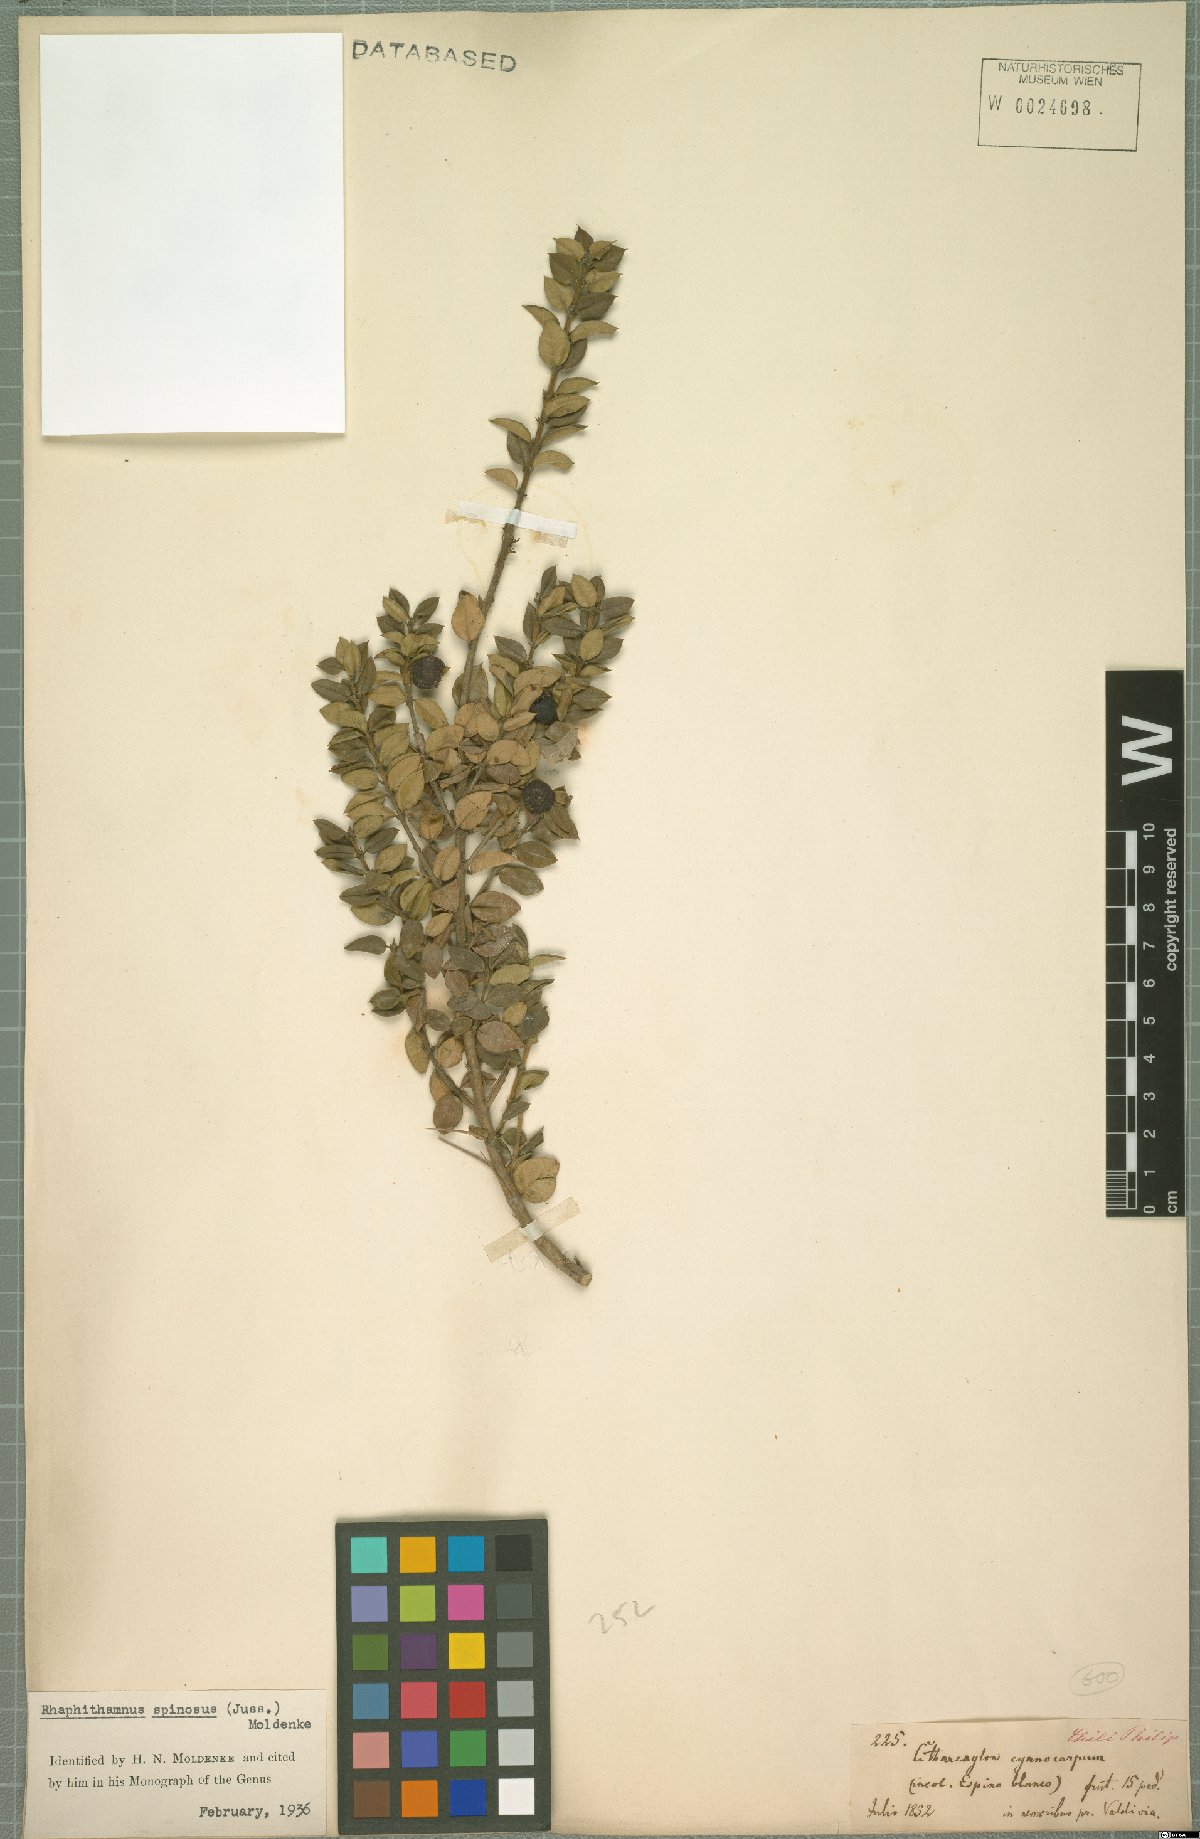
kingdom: Plantae
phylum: Tracheophyta
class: Magnoliopsida
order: Lamiales
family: Verbenaceae
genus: Rhaphithamnus
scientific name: Rhaphithamnus spinosus
